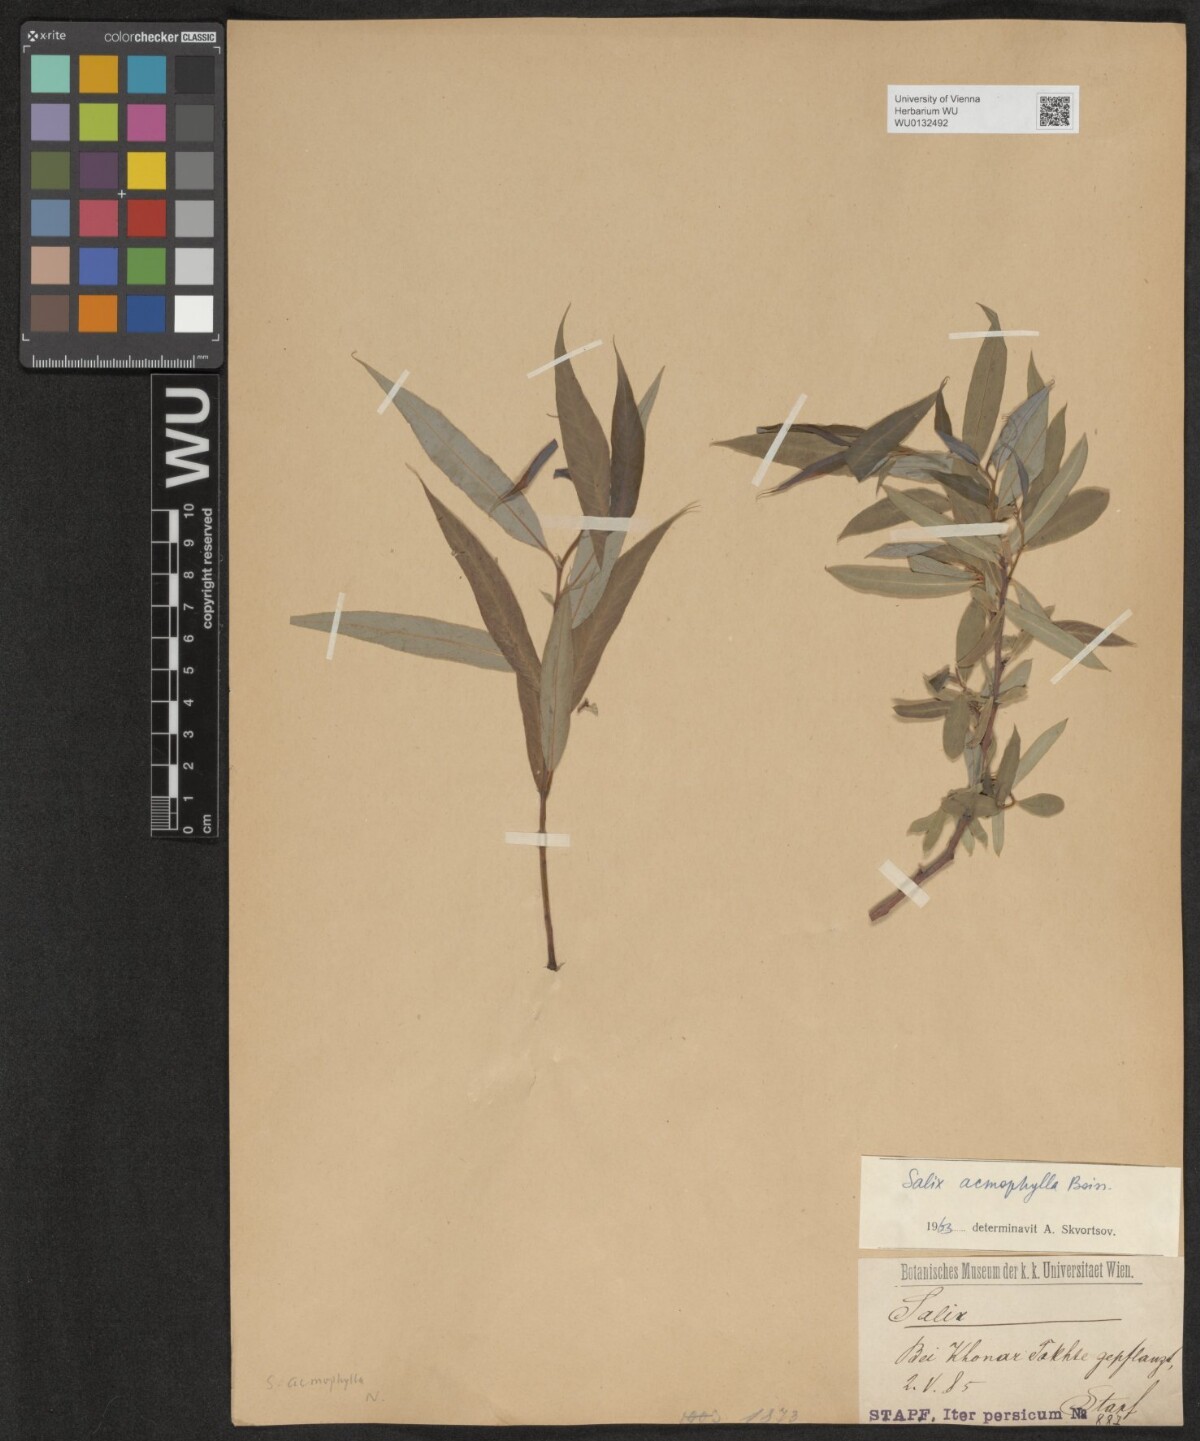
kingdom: Plantae
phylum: Tracheophyta
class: Magnoliopsida
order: Malpighiales
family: Salicaceae
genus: Salix
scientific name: Salix acmophylla
